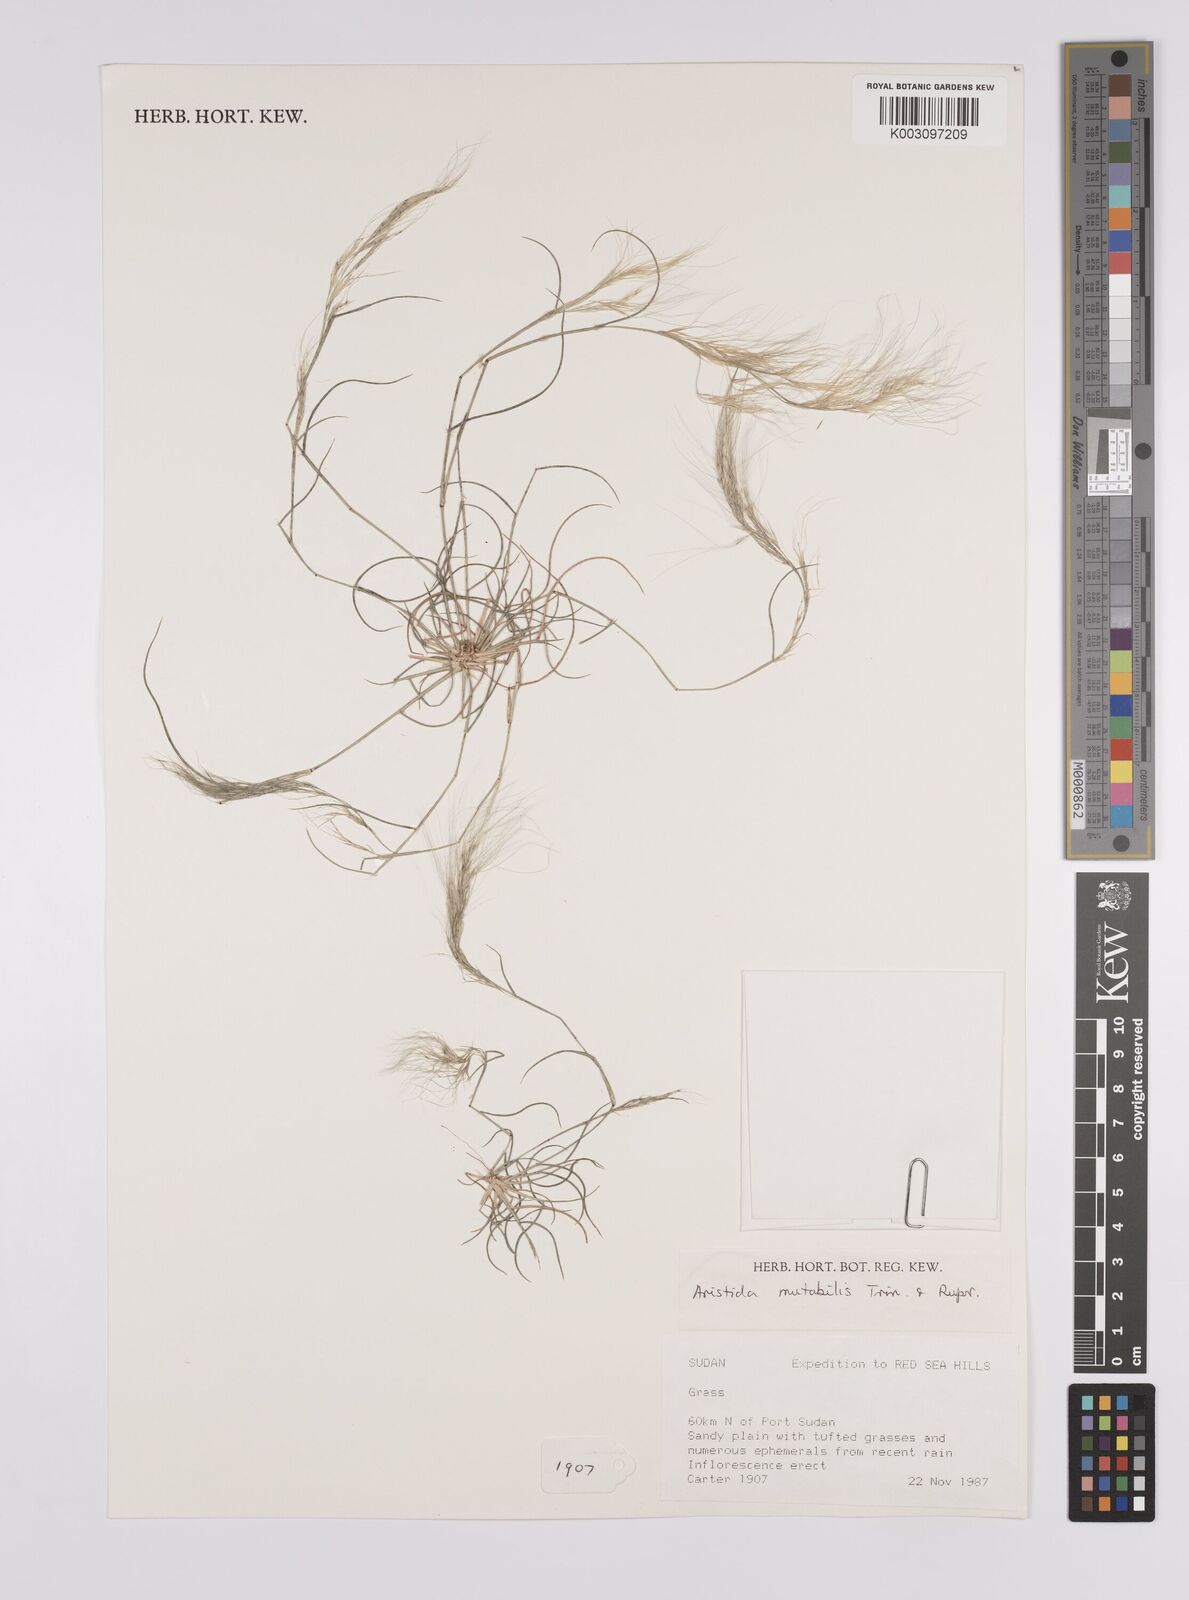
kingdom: Plantae
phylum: Tracheophyta
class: Liliopsida
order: Poales
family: Poaceae
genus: Aristida
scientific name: Aristida mutabilis
